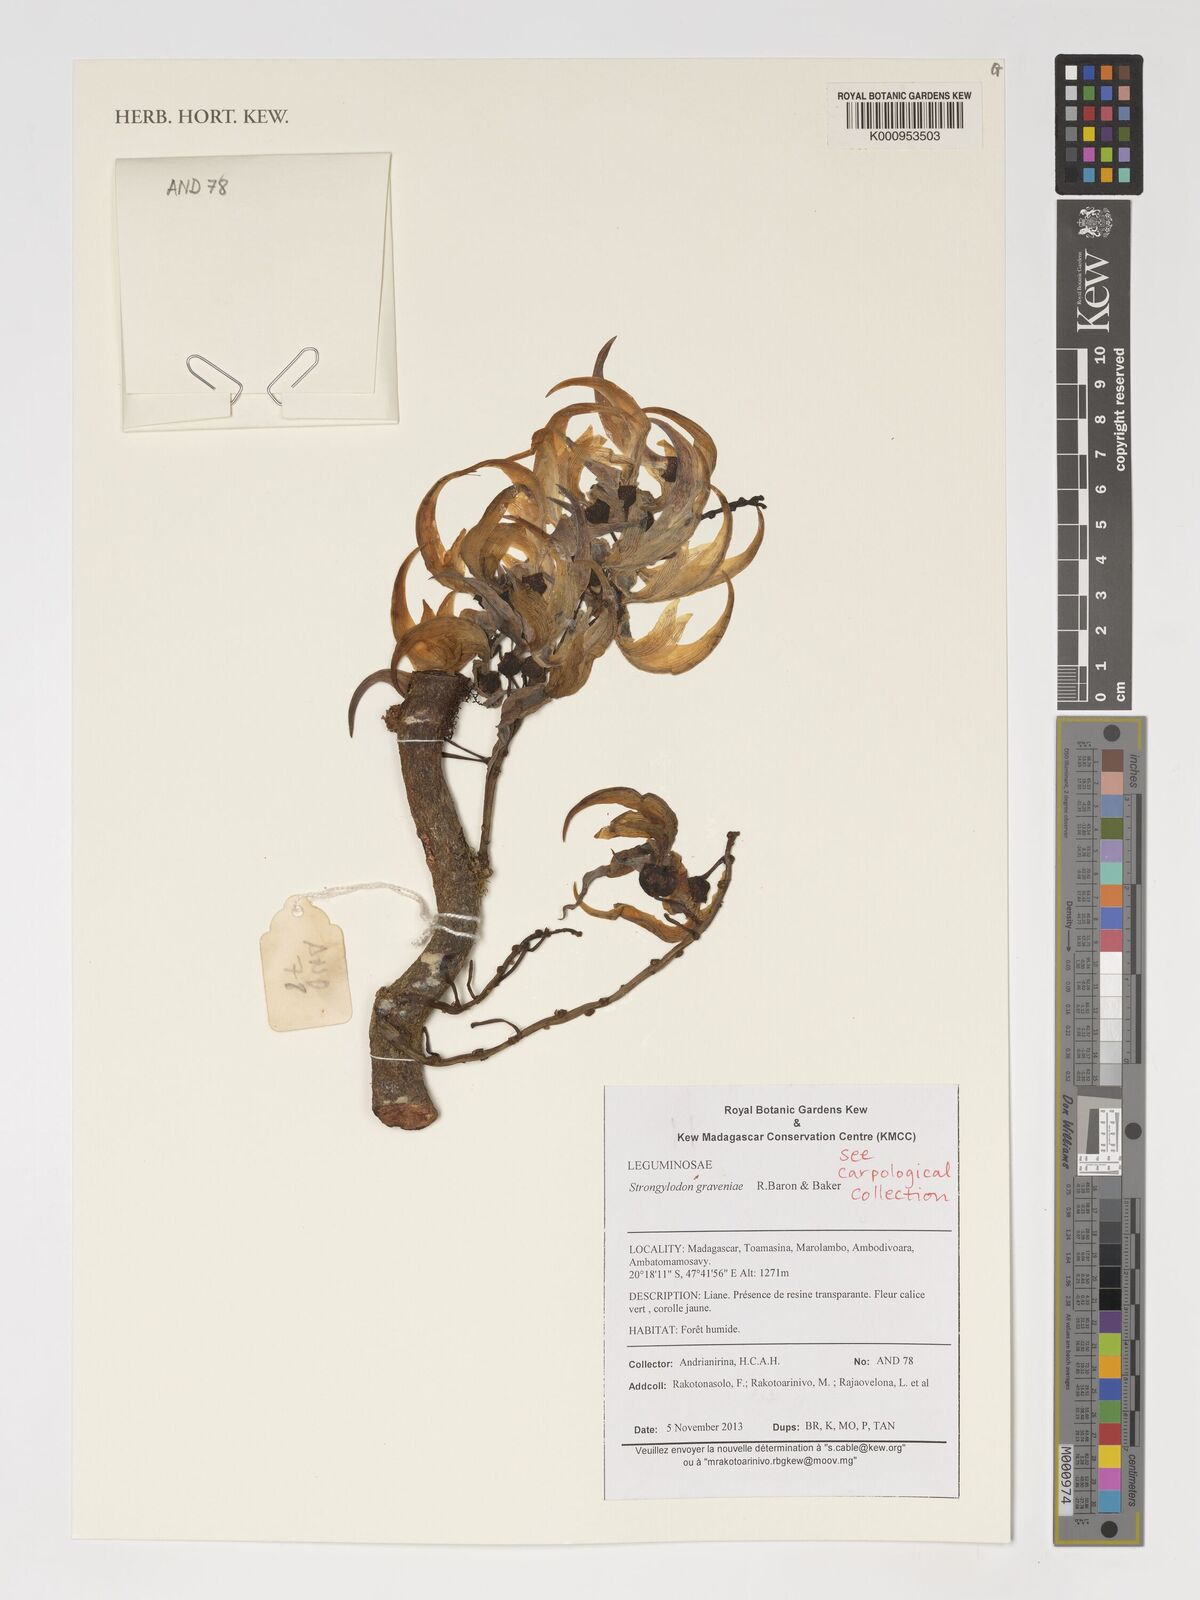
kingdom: Plantae
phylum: Tracheophyta
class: Magnoliopsida
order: Fabales
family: Fabaceae
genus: Strongylodon
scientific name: Strongylodon
